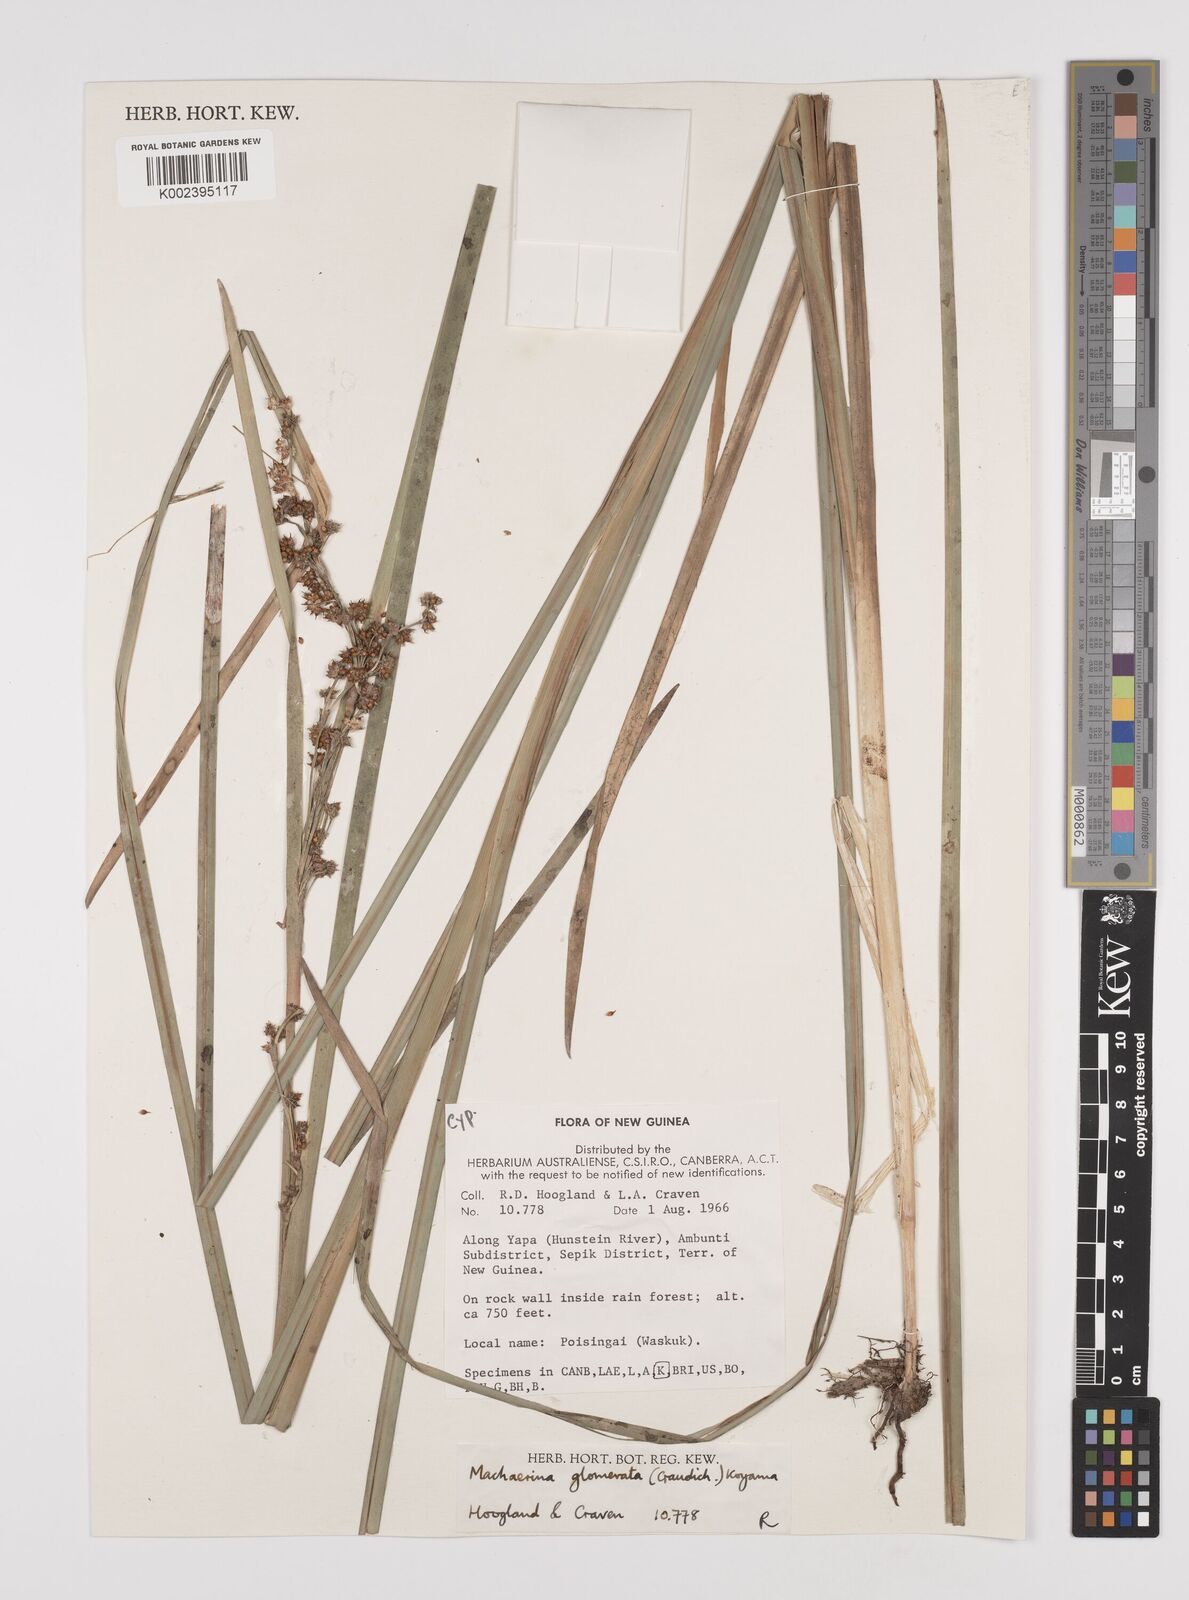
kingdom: Plantae
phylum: Tracheophyta
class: Liliopsida
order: Poales
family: Cyperaceae
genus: Machaerina
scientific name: Machaerina glomerata
